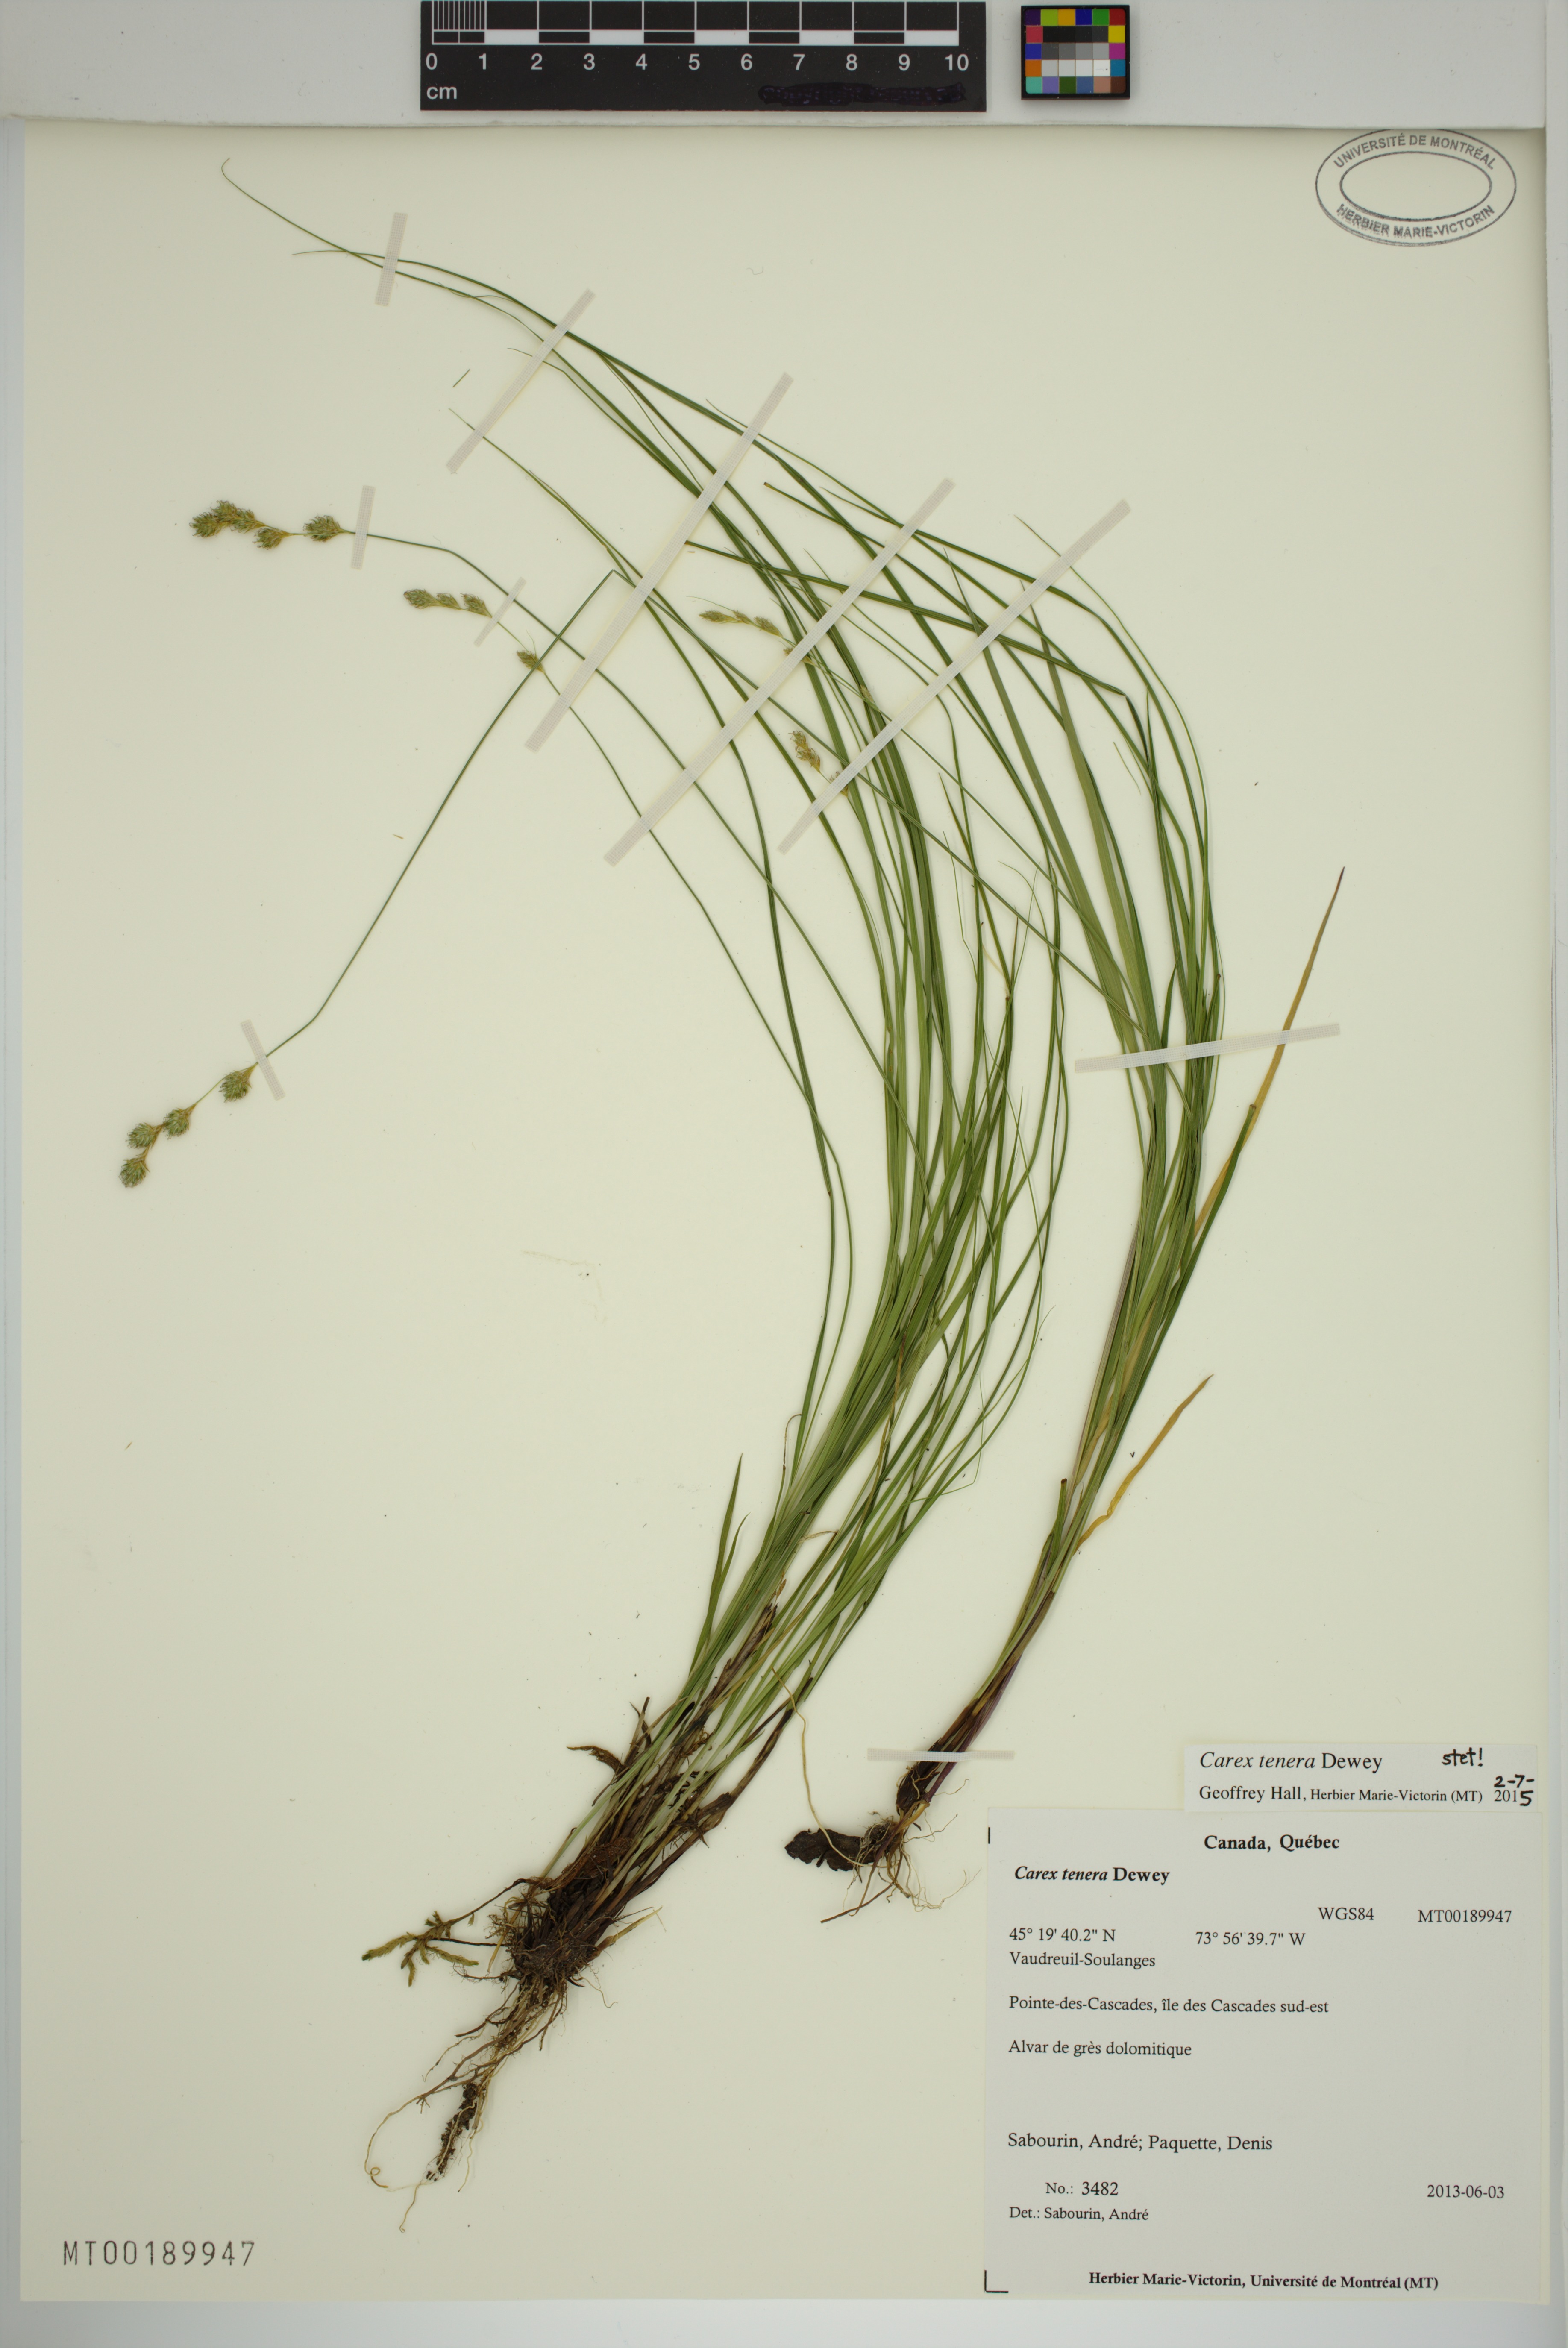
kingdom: Plantae
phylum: Tracheophyta
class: Liliopsida
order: Poales
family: Cyperaceae
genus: Carex
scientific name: Carex tenera
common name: Broad-fruited sedge
